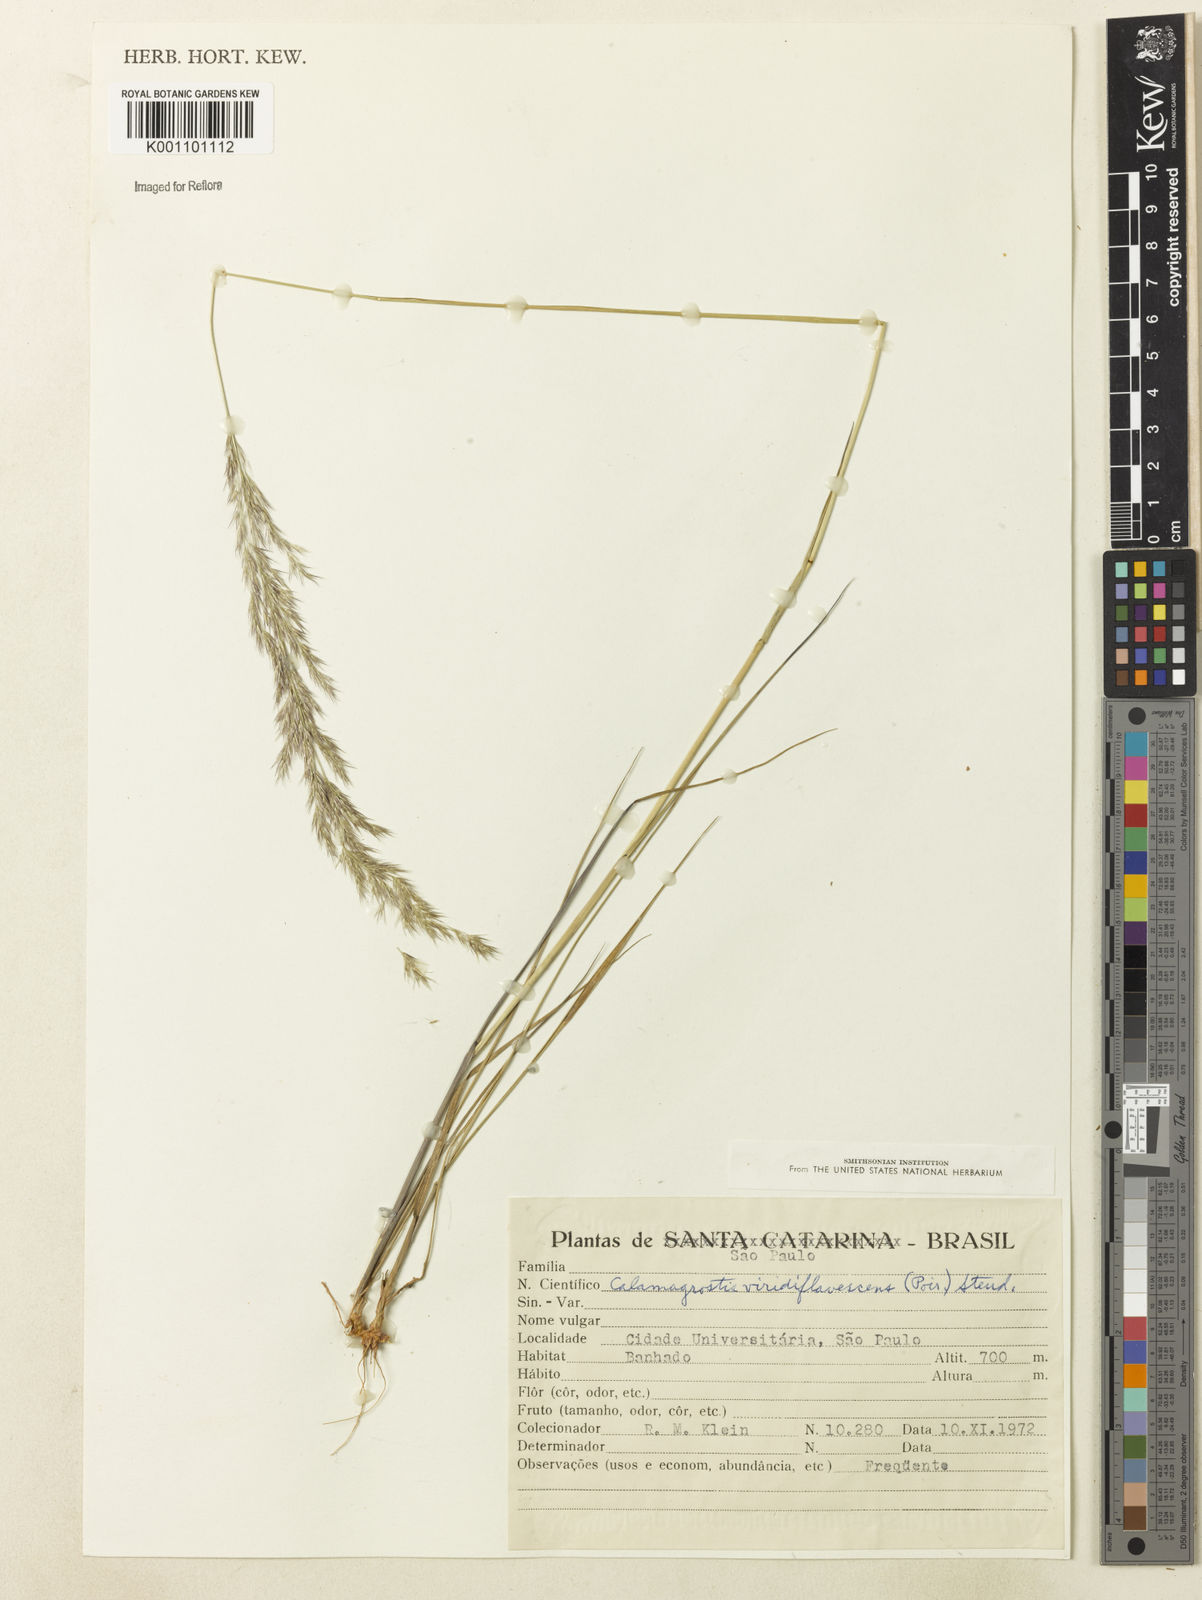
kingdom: Plantae
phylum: Tracheophyta
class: Liliopsida
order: Poales
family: Poaceae
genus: Cinnagrostis
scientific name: Cinnagrostis viridiflavescens
